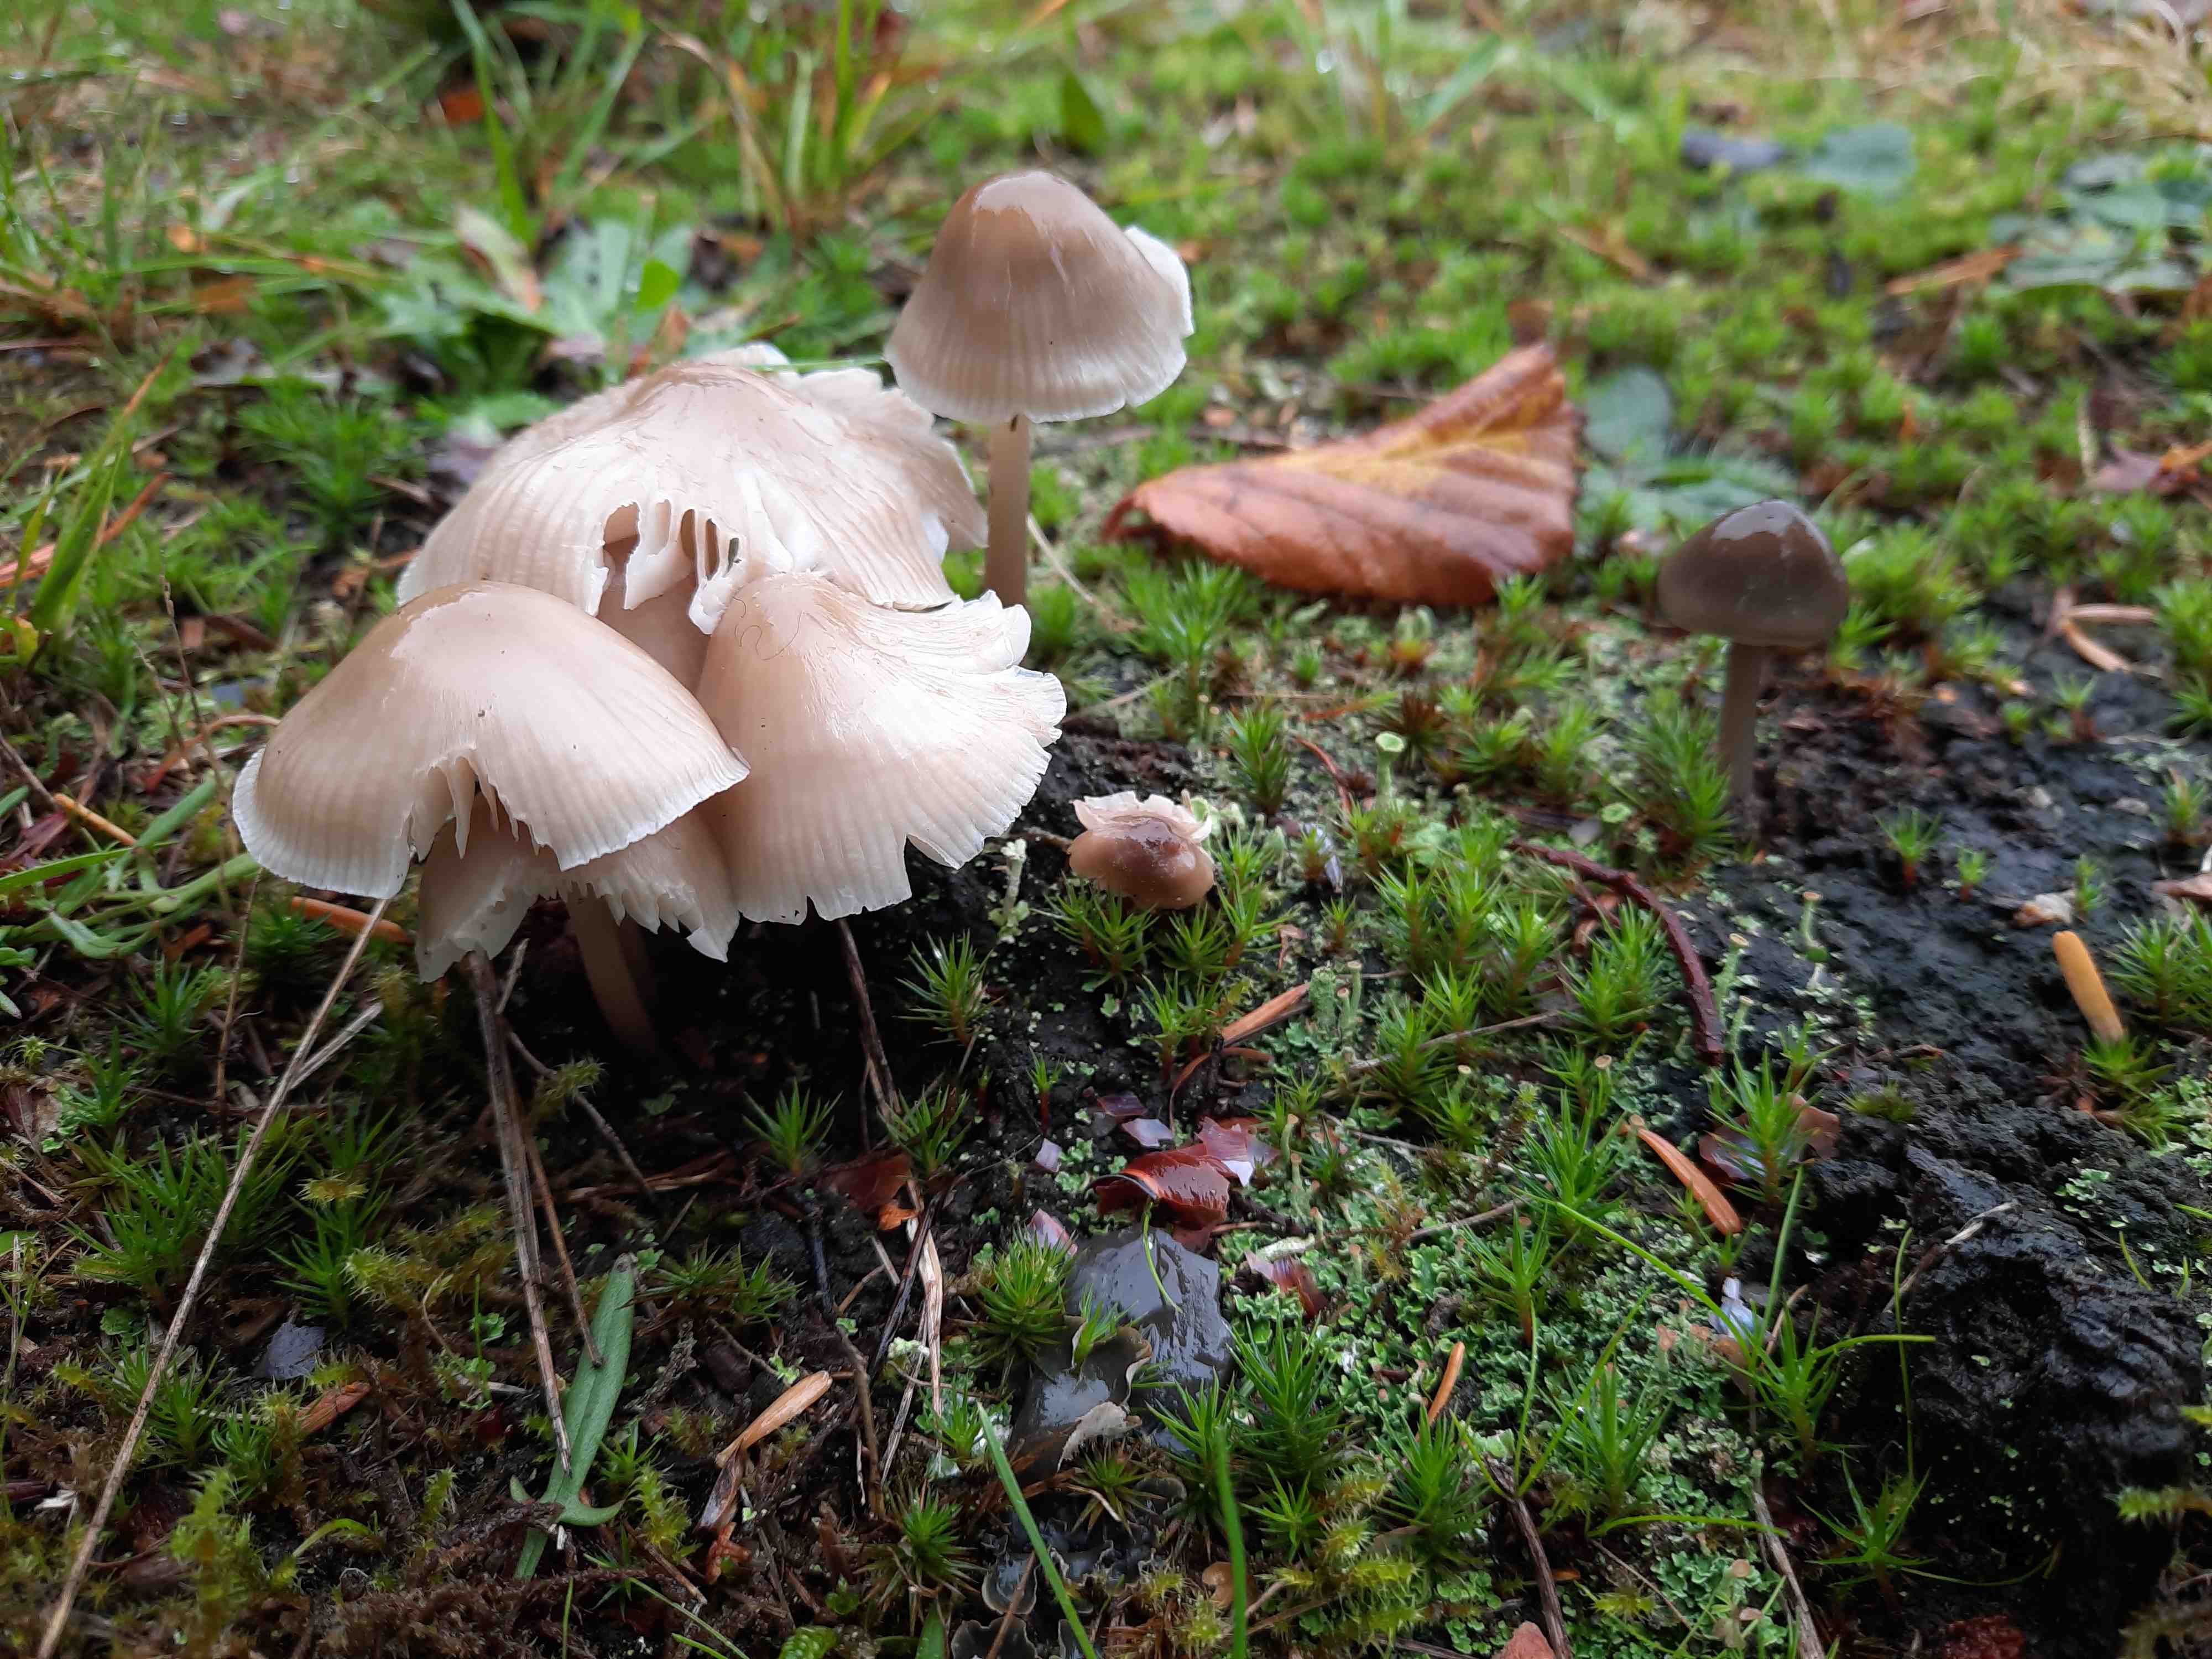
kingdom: Fungi
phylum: Basidiomycota
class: Agaricomycetes
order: Agaricales
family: Mycenaceae
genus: Mycena
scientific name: Mycena galericulata
